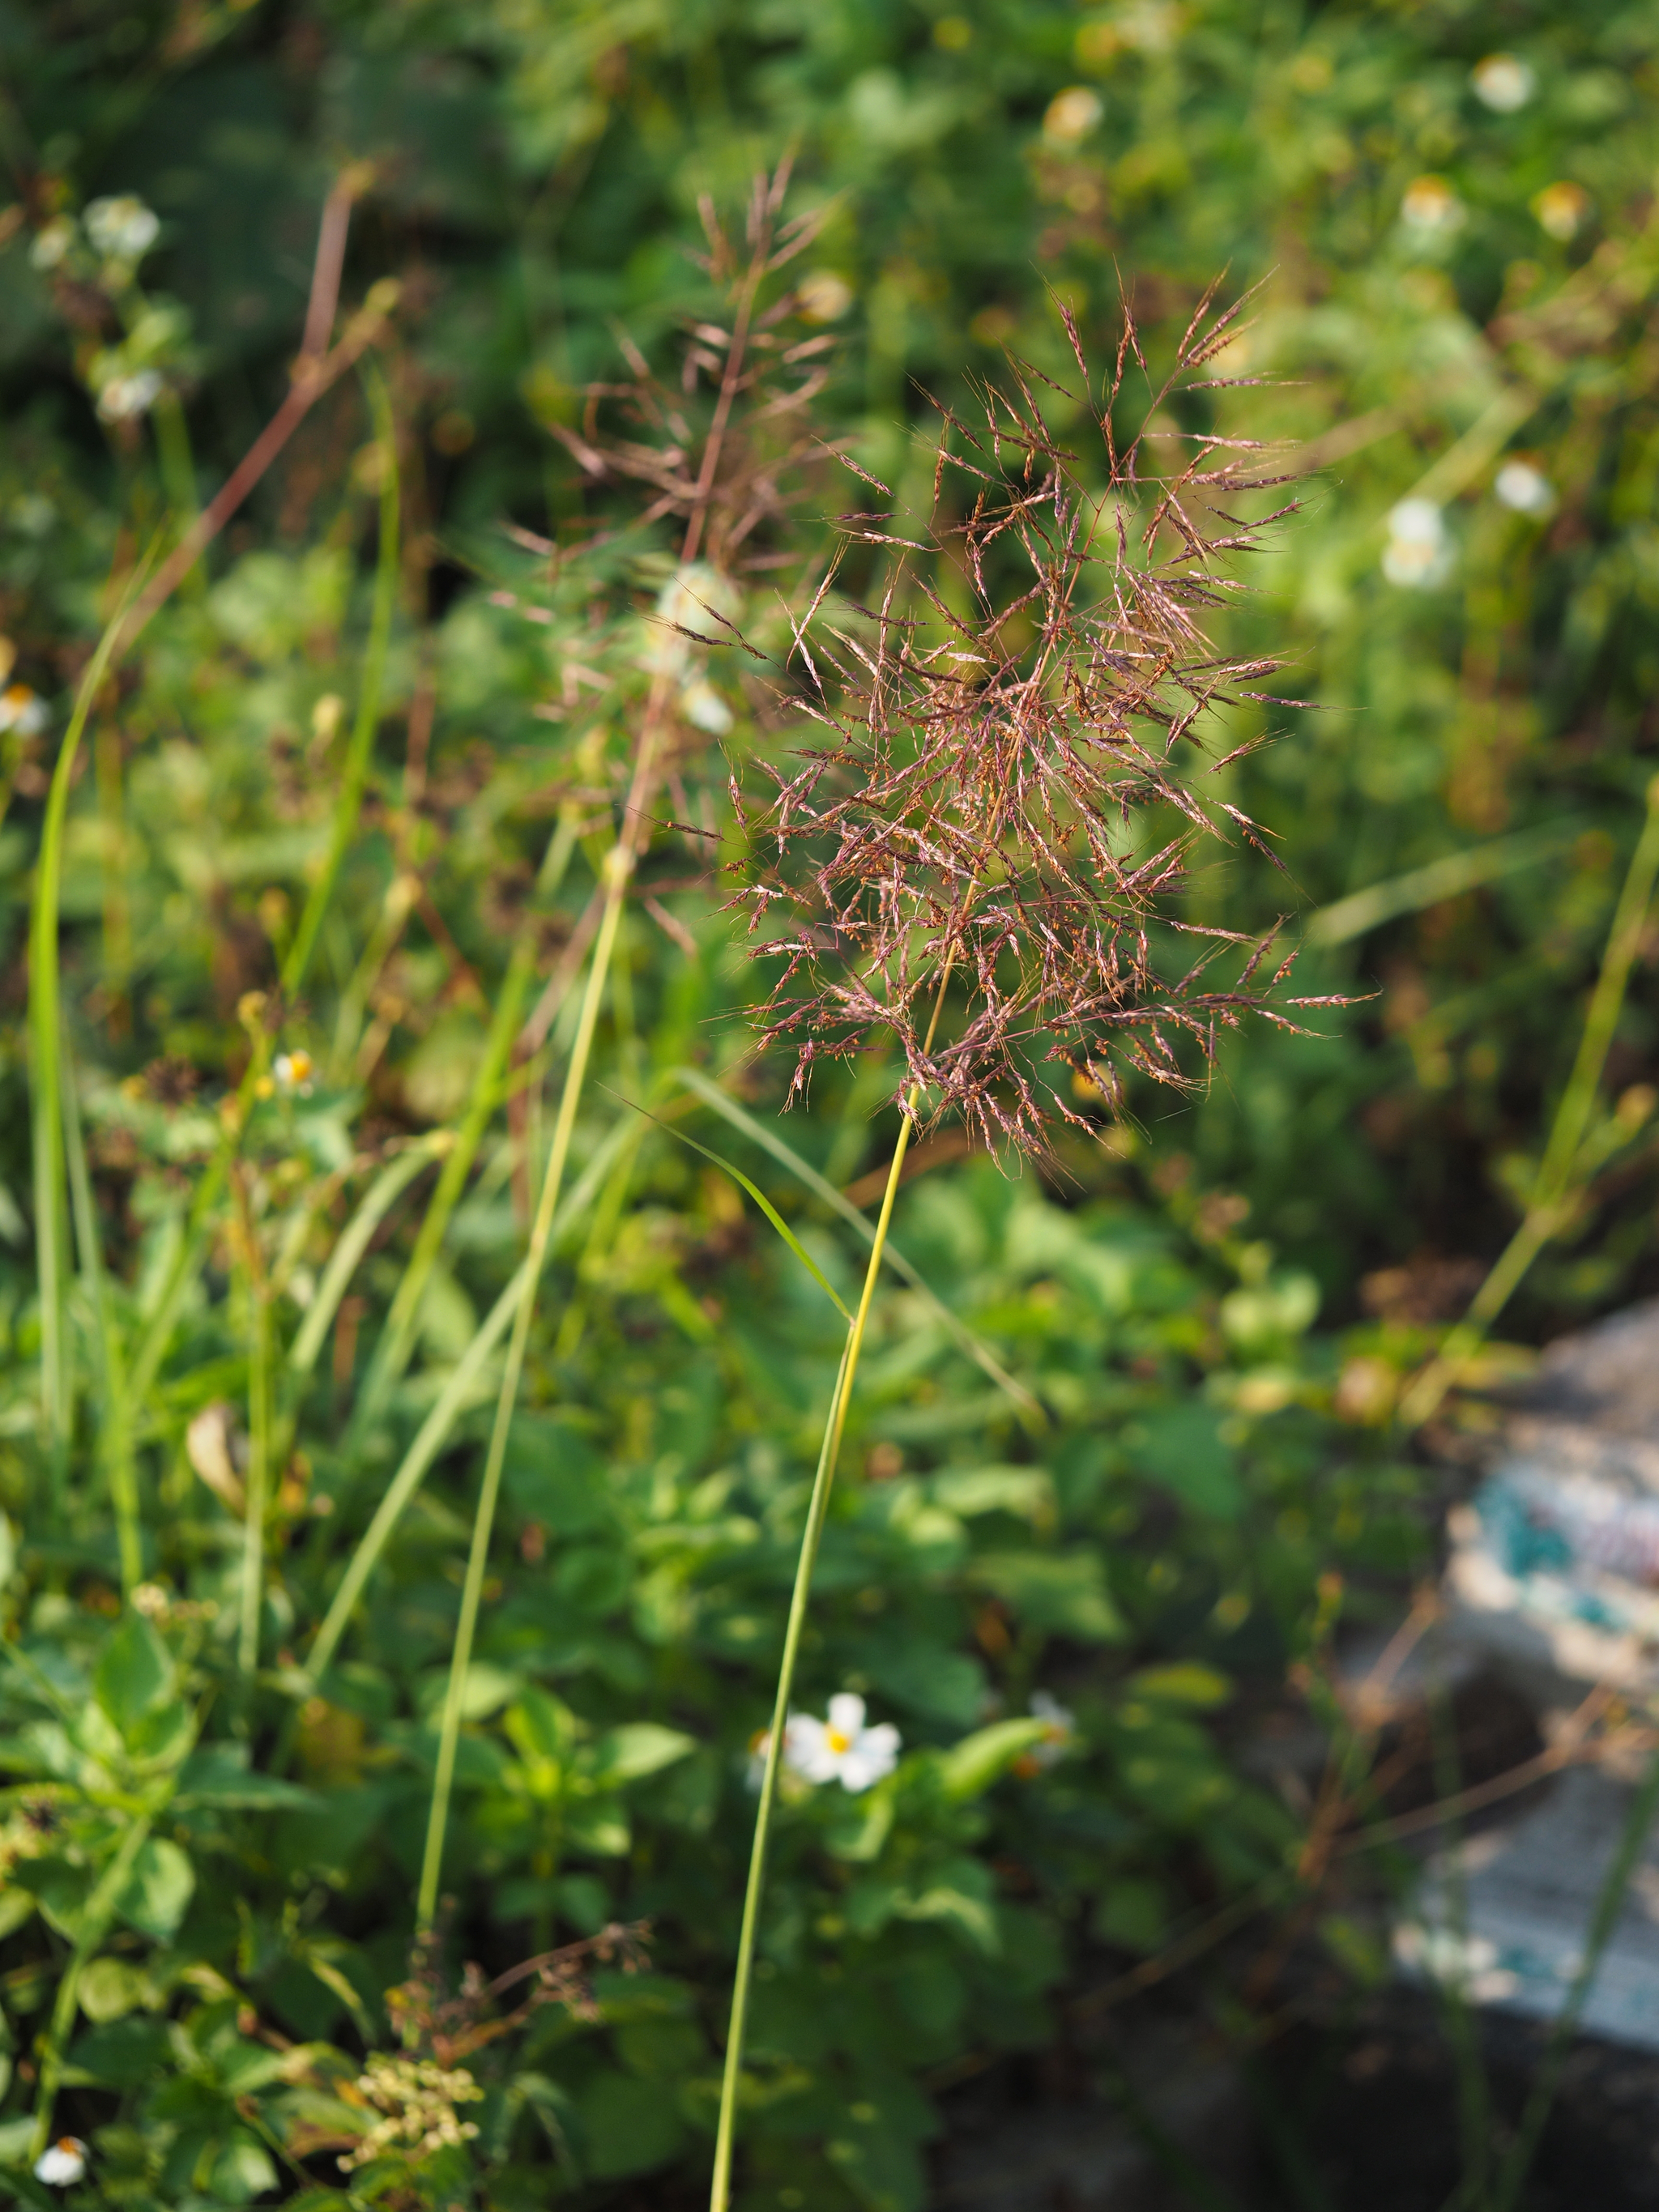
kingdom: Plantae
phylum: Tracheophyta
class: Liliopsida
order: Poales
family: Poaceae
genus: Capillipedium
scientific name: Capillipedium parviflorum
